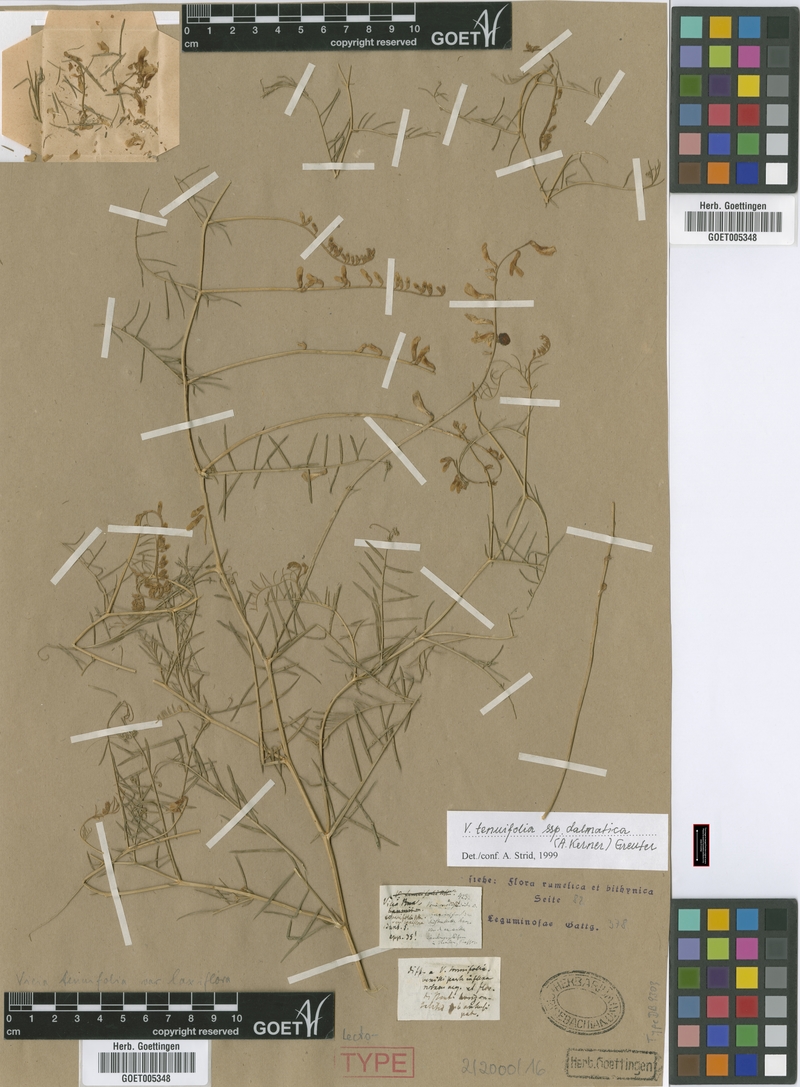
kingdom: Plantae
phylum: Tracheophyta
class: Magnoliopsida
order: Fabales
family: Fabaceae
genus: Vicia
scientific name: Vicia dalmatica
